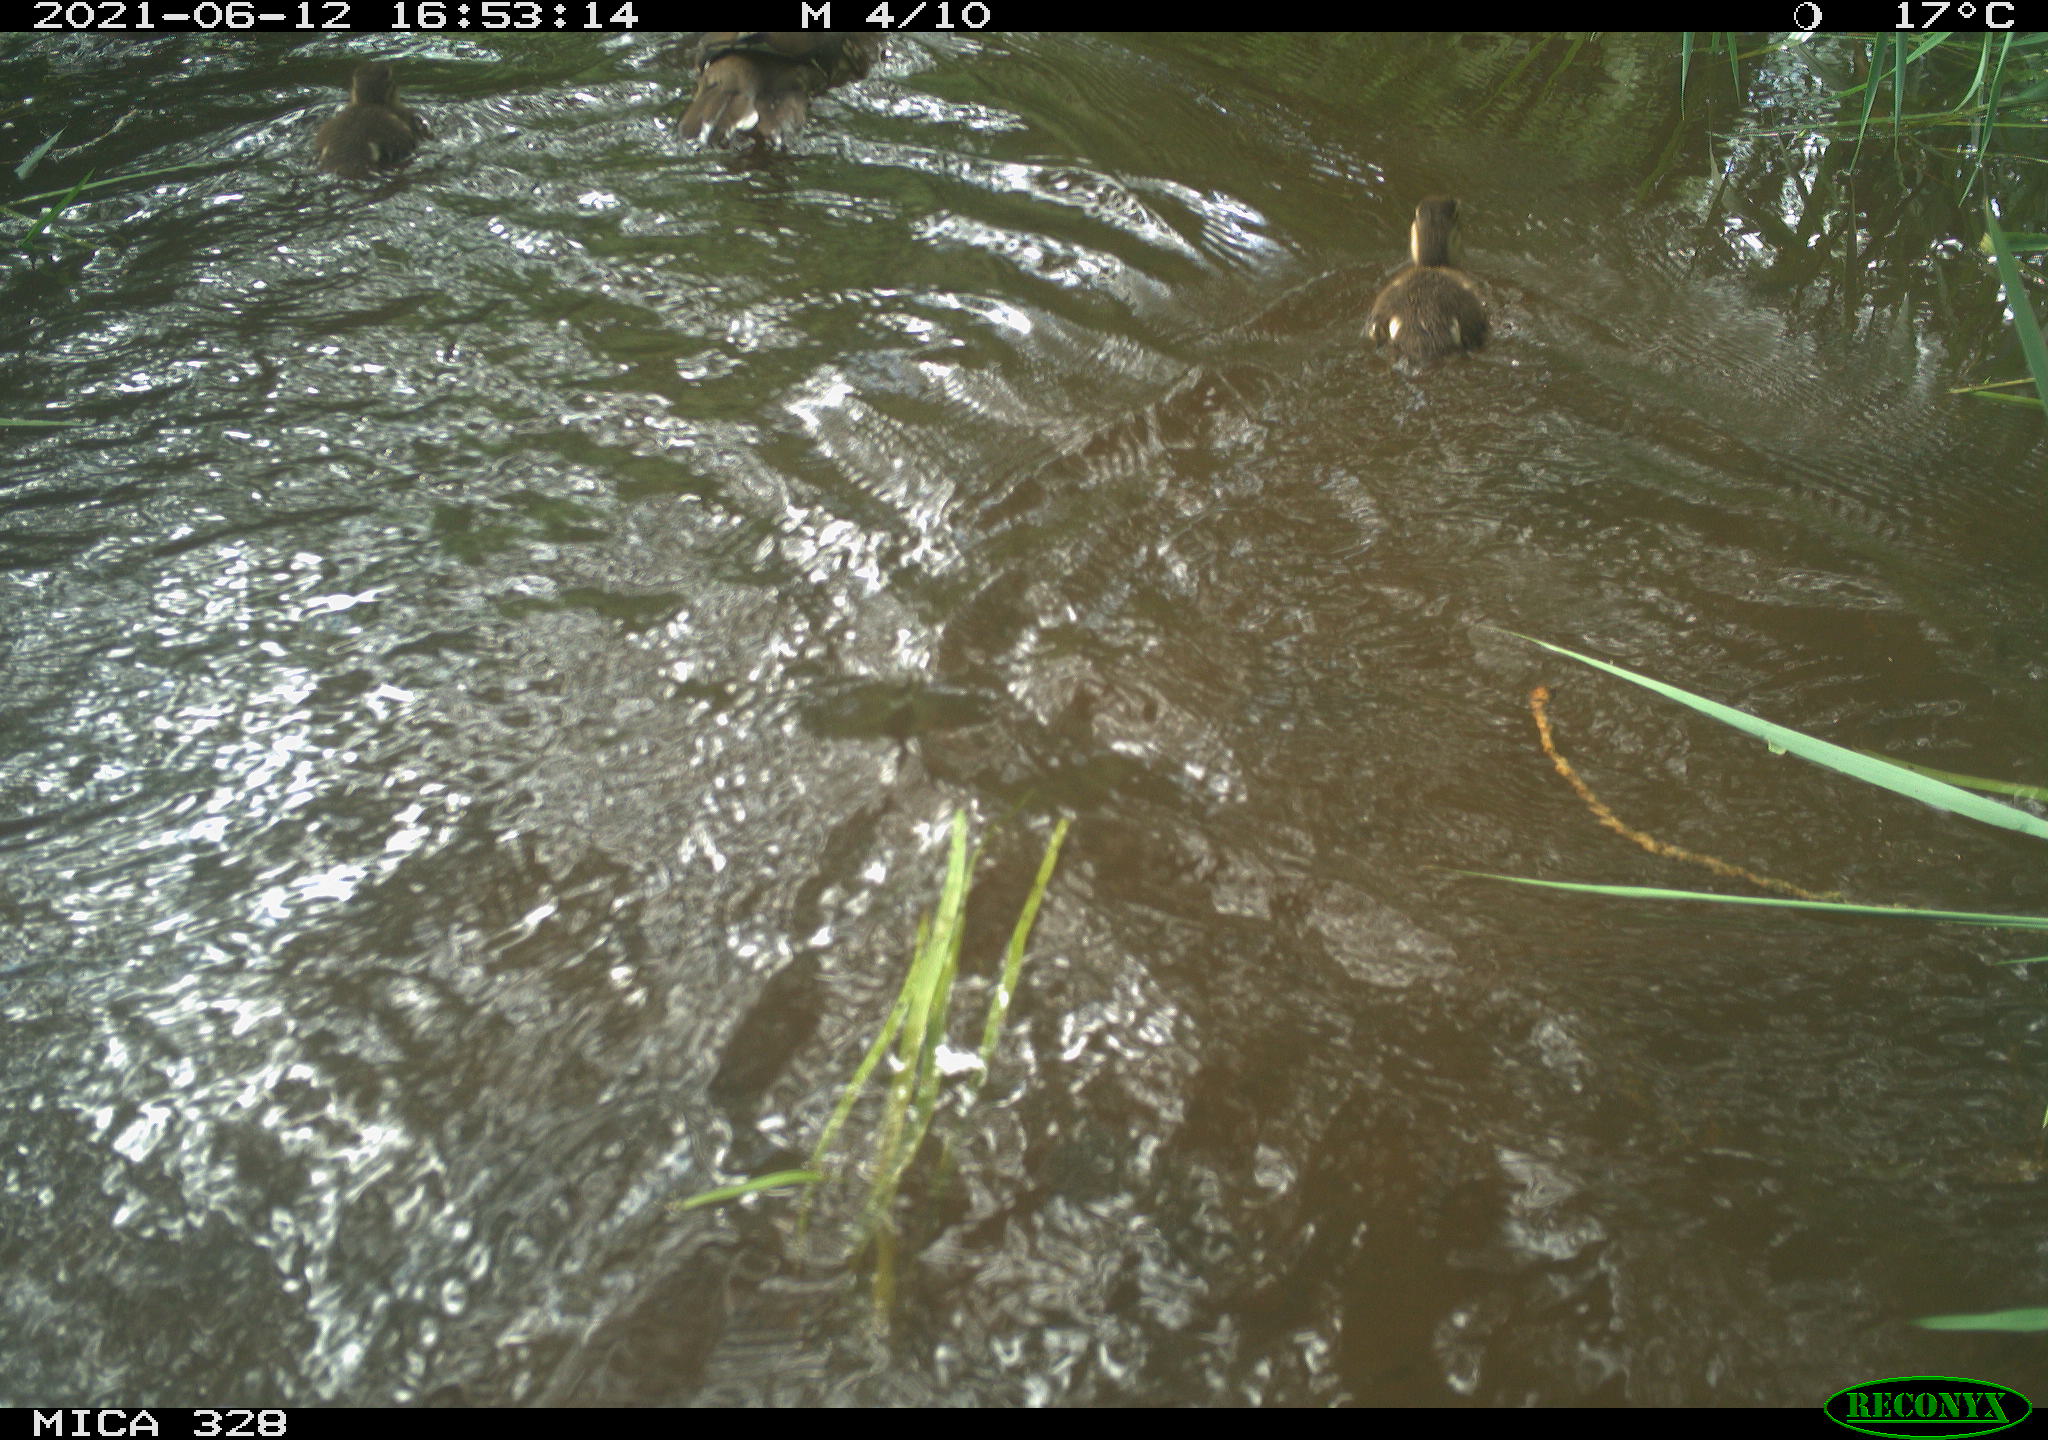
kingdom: Animalia
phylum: Chordata
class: Aves
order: Anseriformes
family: Anatidae
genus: Aix
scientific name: Aix galericulata
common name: Mandarin duck
